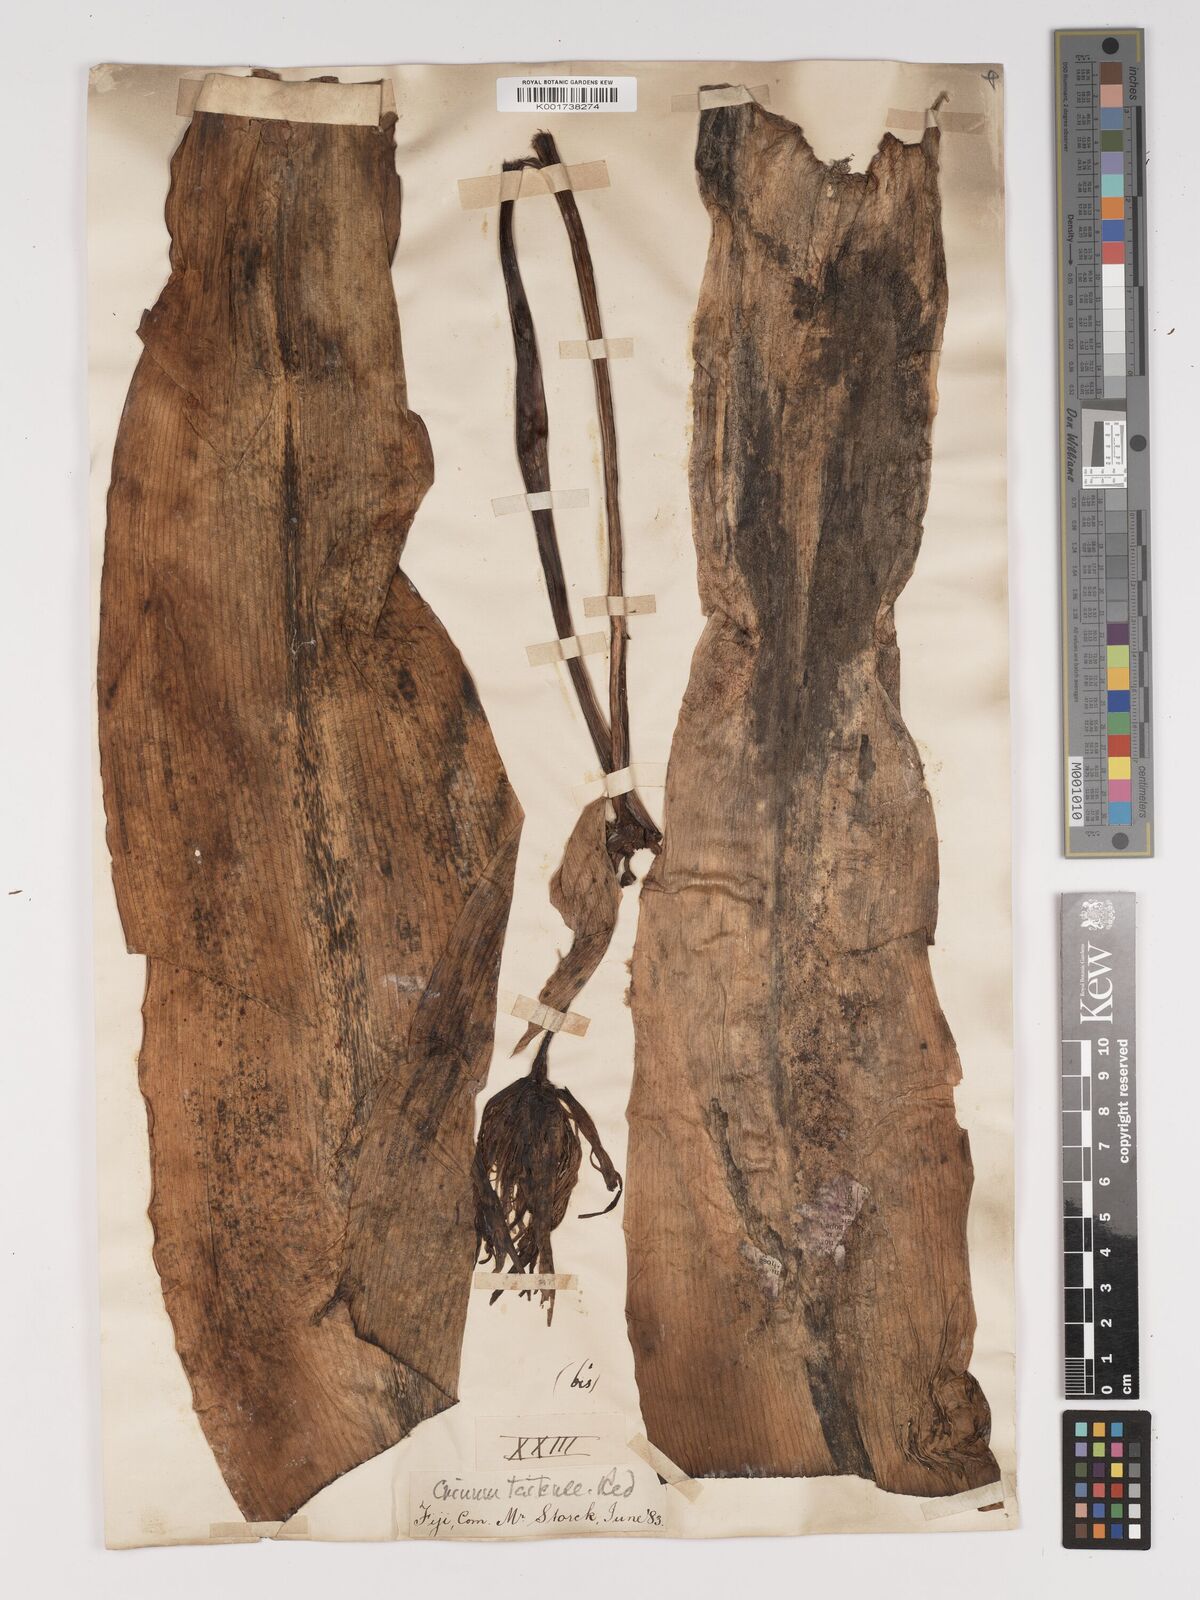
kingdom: Plantae
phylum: Tracheophyta
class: Liliopsida
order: Asparagales
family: Amaryllidaceae
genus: Crinum
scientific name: Crinum asiaticum
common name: Poisonbulb
